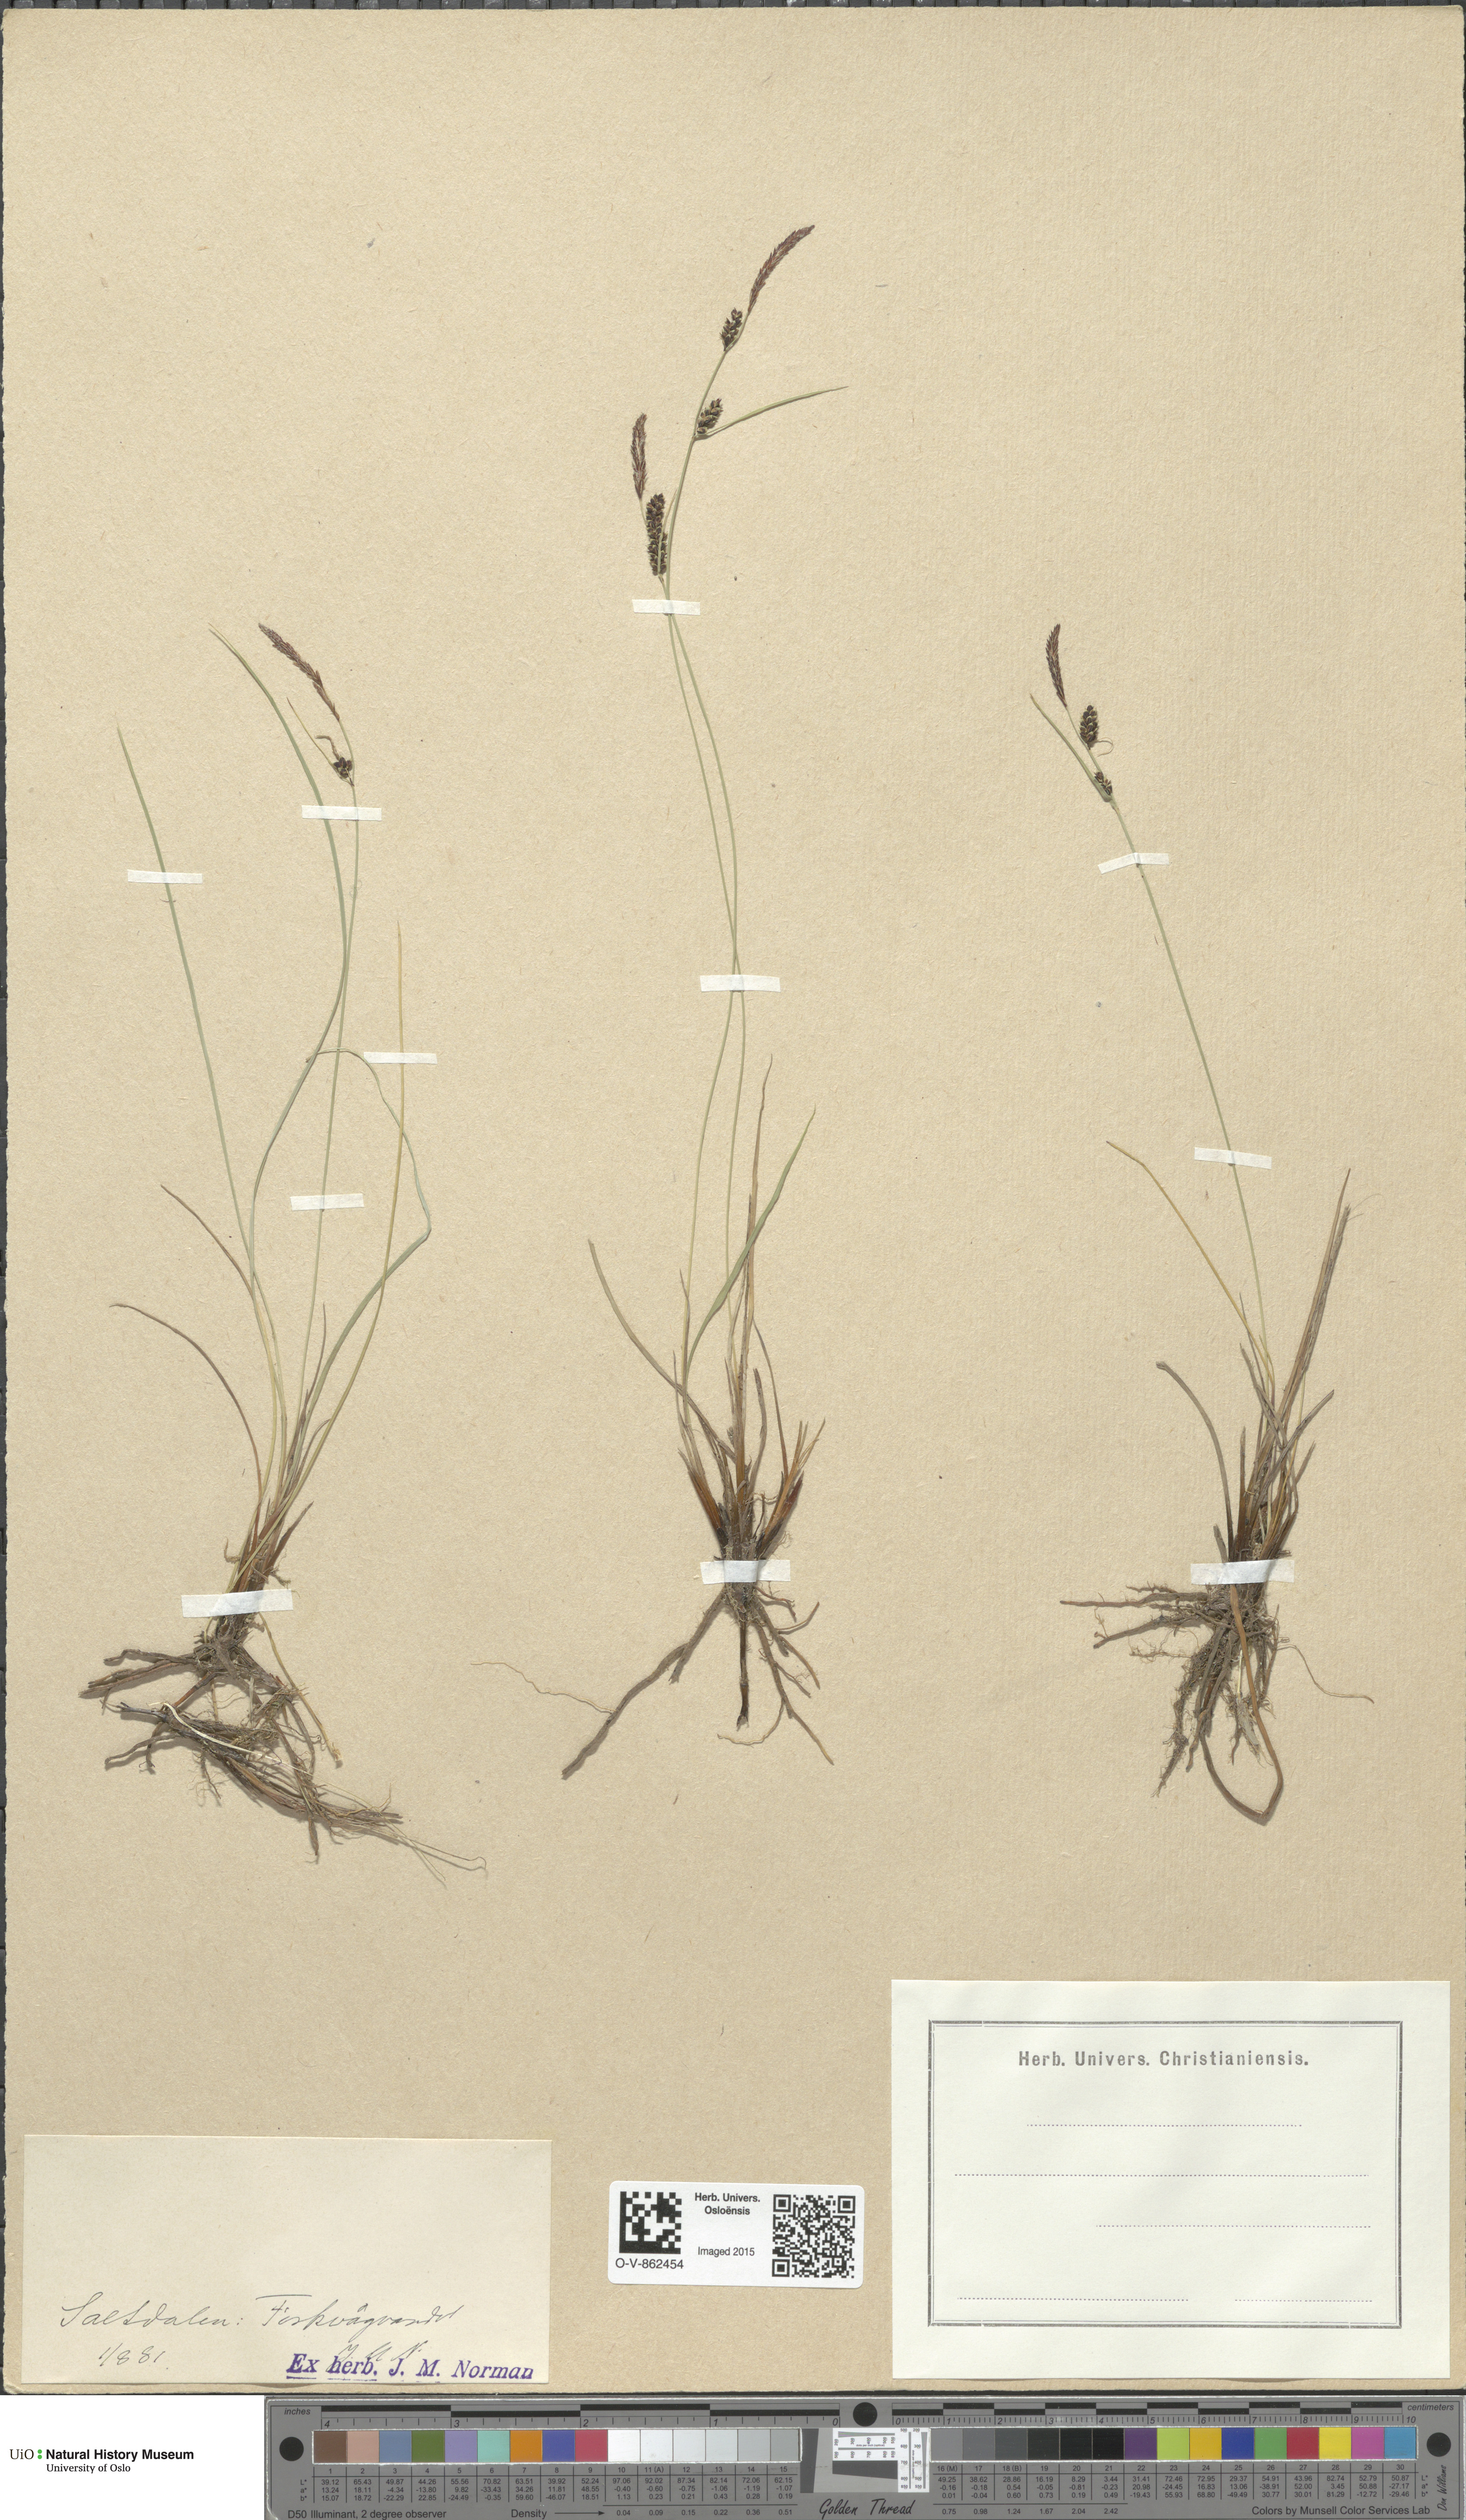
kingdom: Plantae
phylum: Tracheophyta
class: Liliopsida
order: Poales
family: Cyperaceae
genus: Carex
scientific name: Carex nigra
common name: Common sedge
